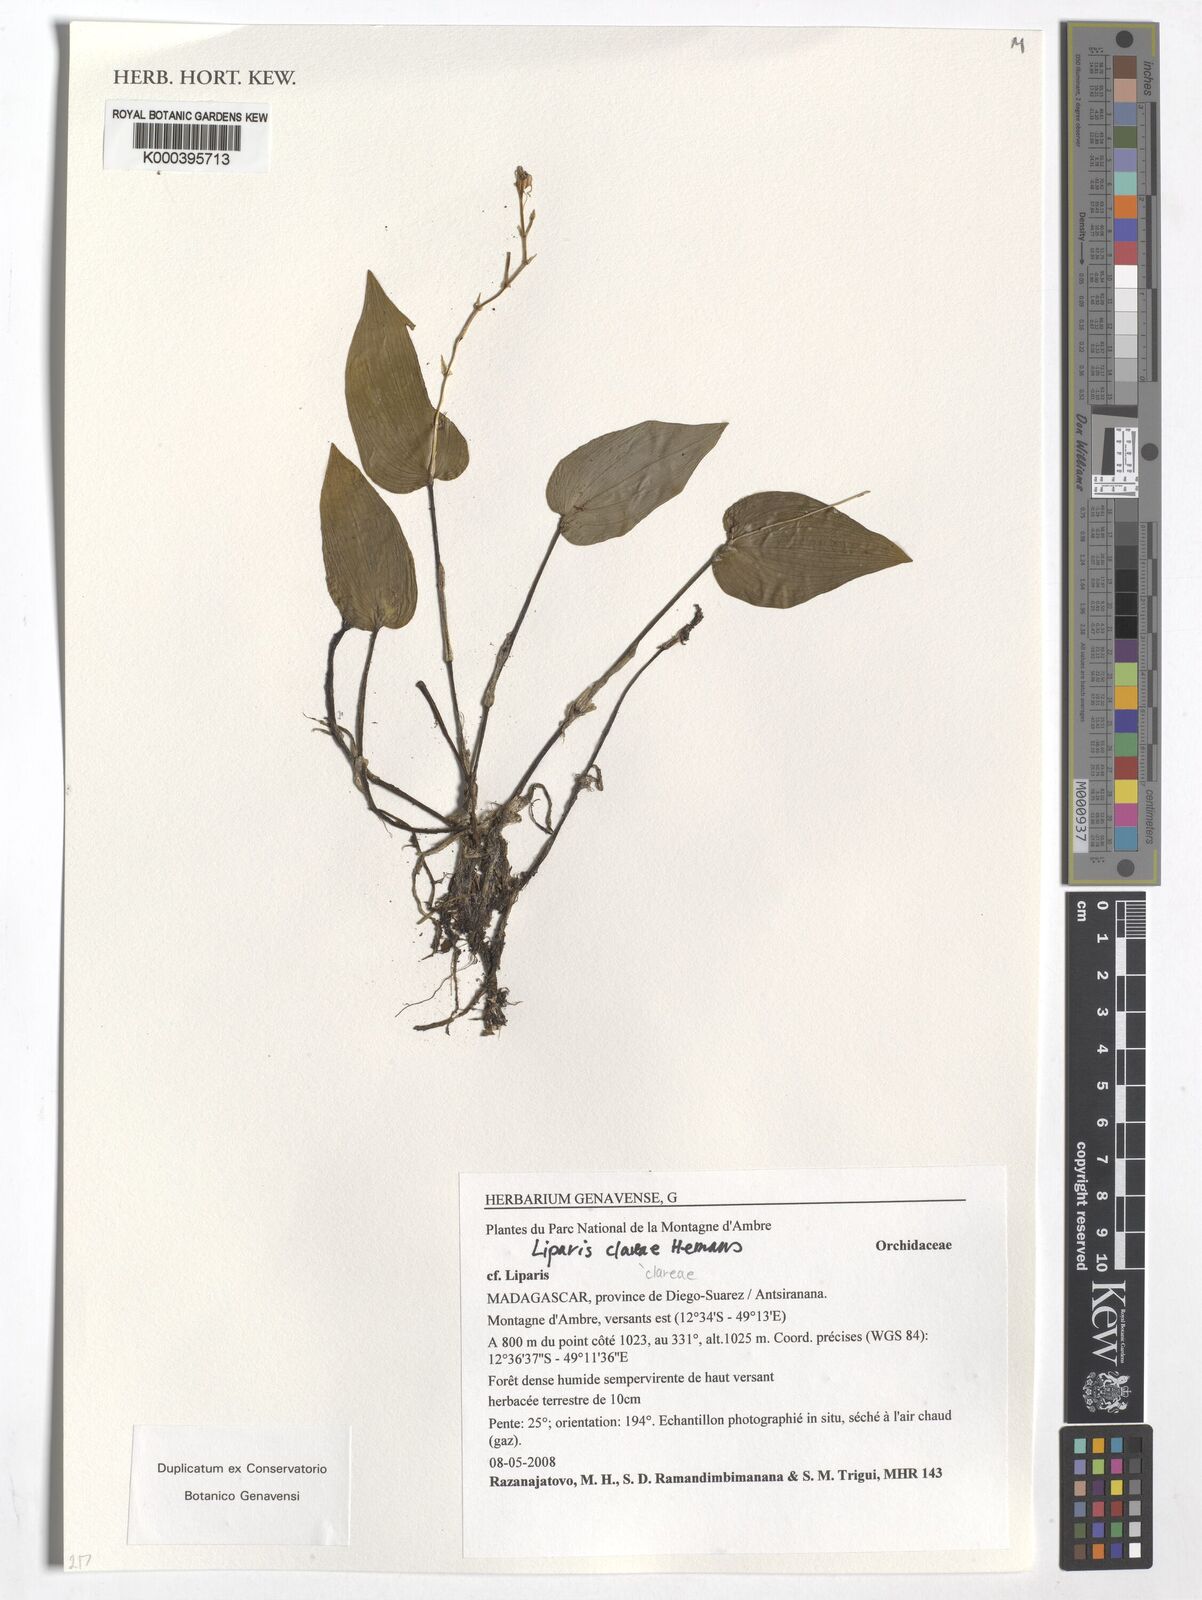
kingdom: Plantae
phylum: Tracheophyta
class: Liliopsida
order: Asparagales
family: Orchidaceae
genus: Liparis
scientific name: Liparis clareae
